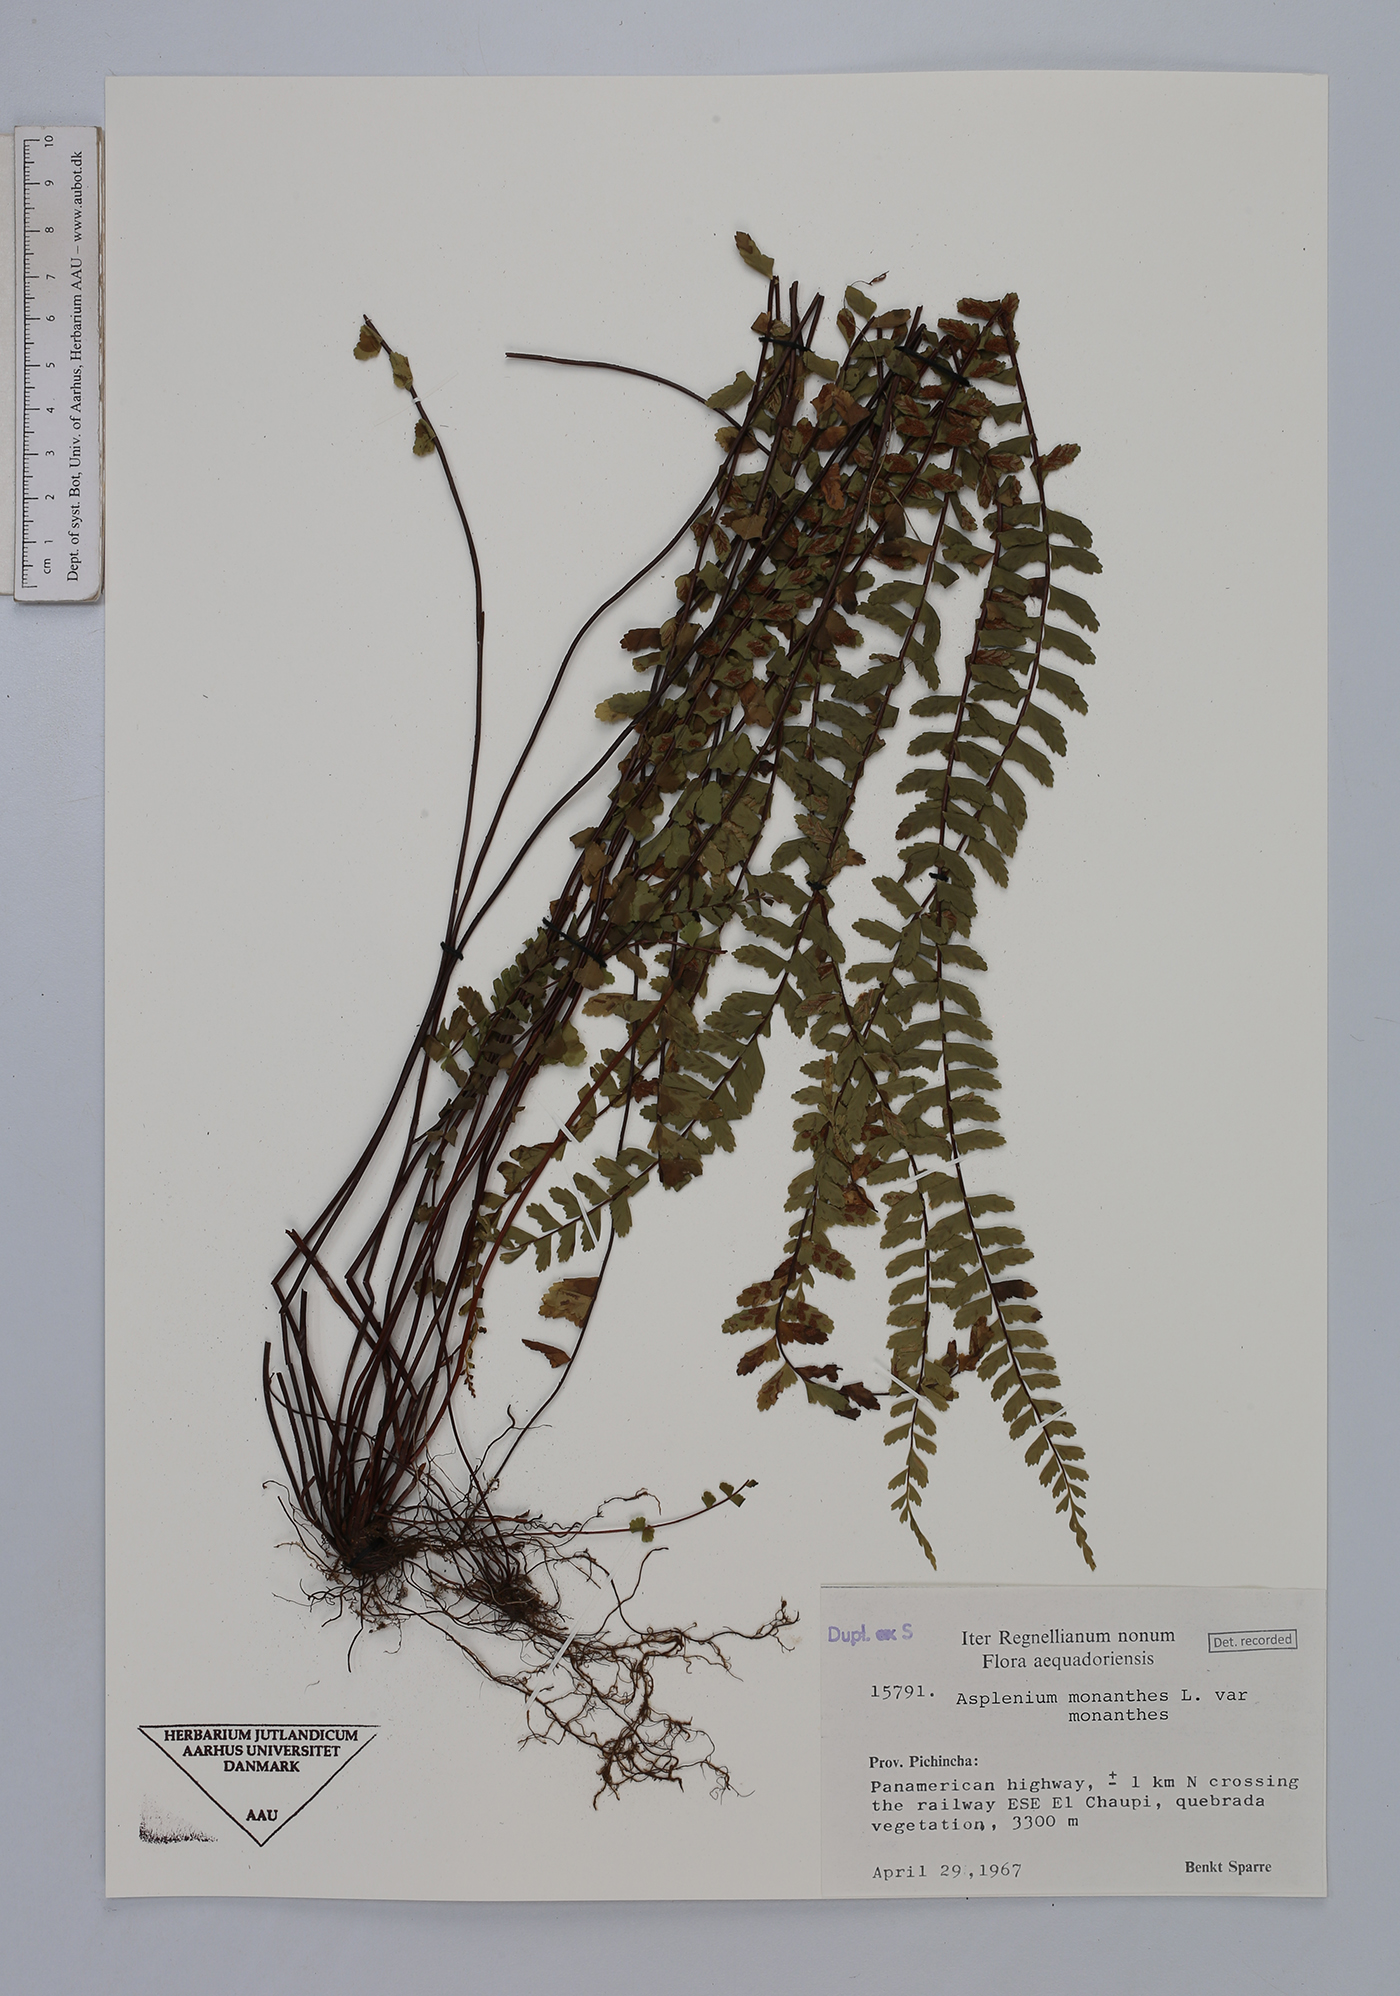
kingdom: Plantae
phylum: Tracheophyta
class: Polypodiopsida
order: Polypodiales
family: Aspleniaceae
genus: Asplenium
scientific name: Asplenium monanthes
